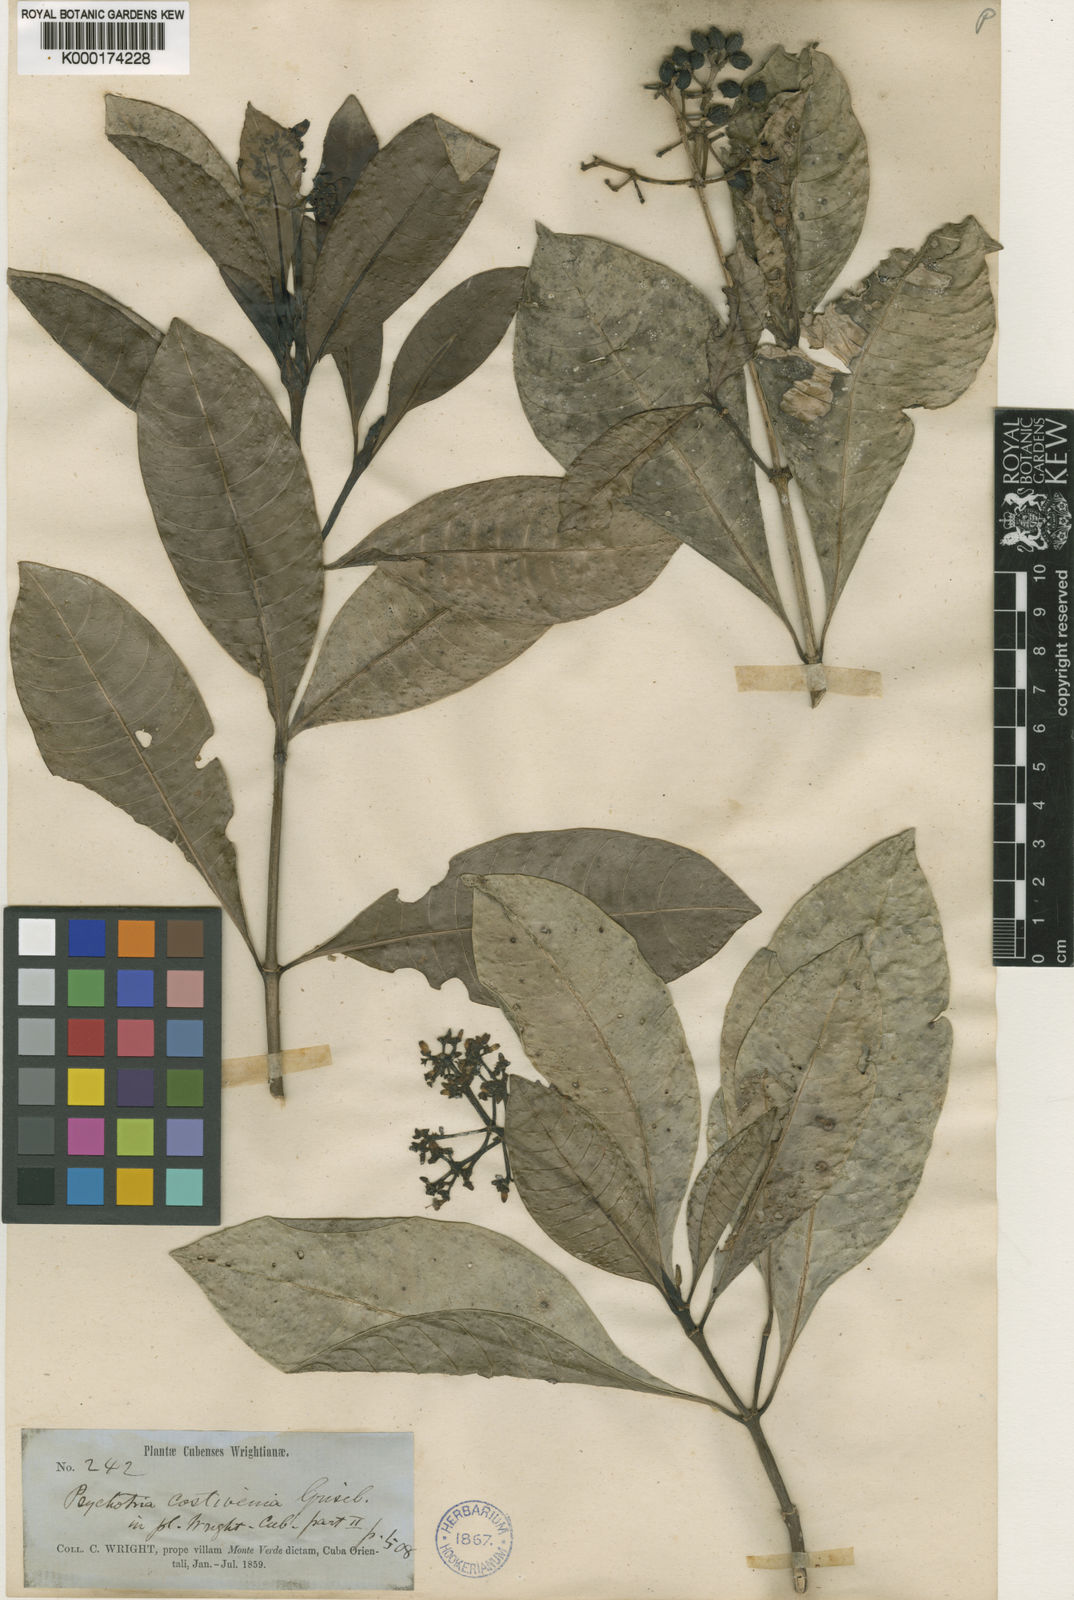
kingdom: Plantae
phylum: Tracheophyta
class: Magnoliopsida
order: Gentianales
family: Rubiaceae
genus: Psychotria
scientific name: Psychotria costivenia
